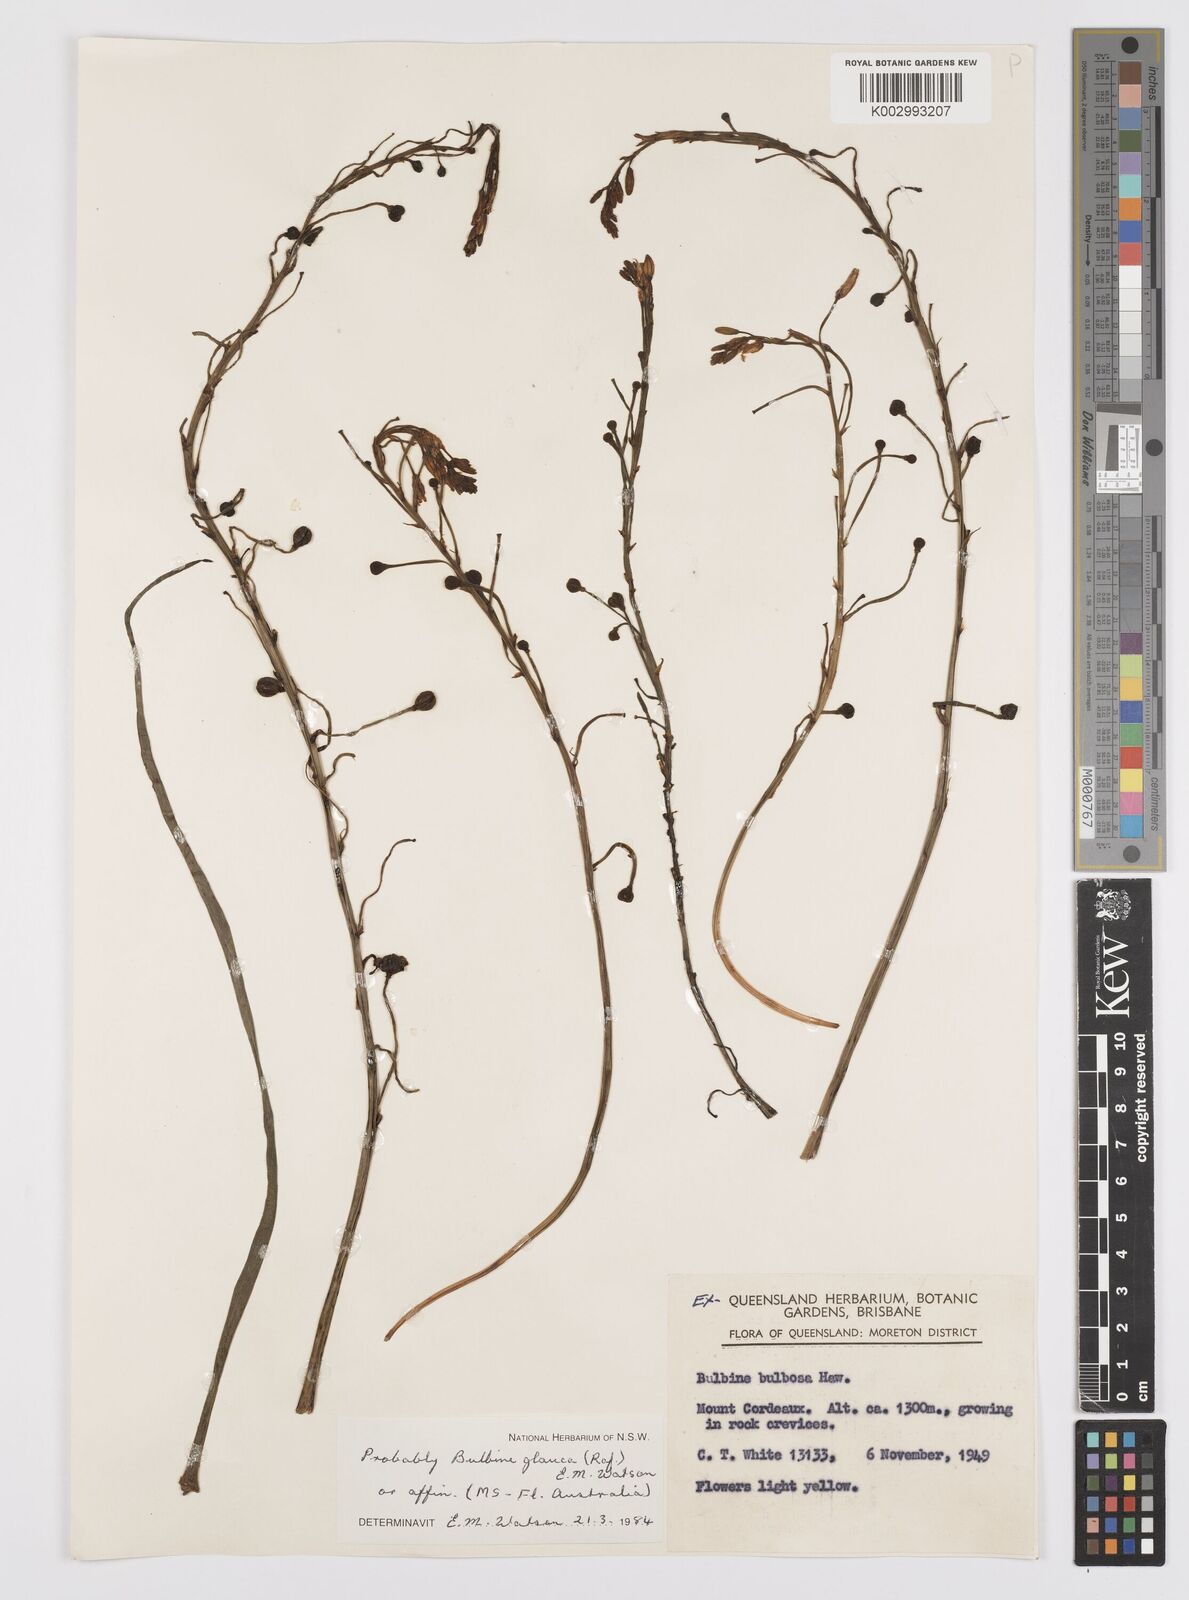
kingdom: Plantae
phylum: Tracheophyta
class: Liliopsida
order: Asparagales
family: Asphodelaceae
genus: Bulbine
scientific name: Bulbine glauca
